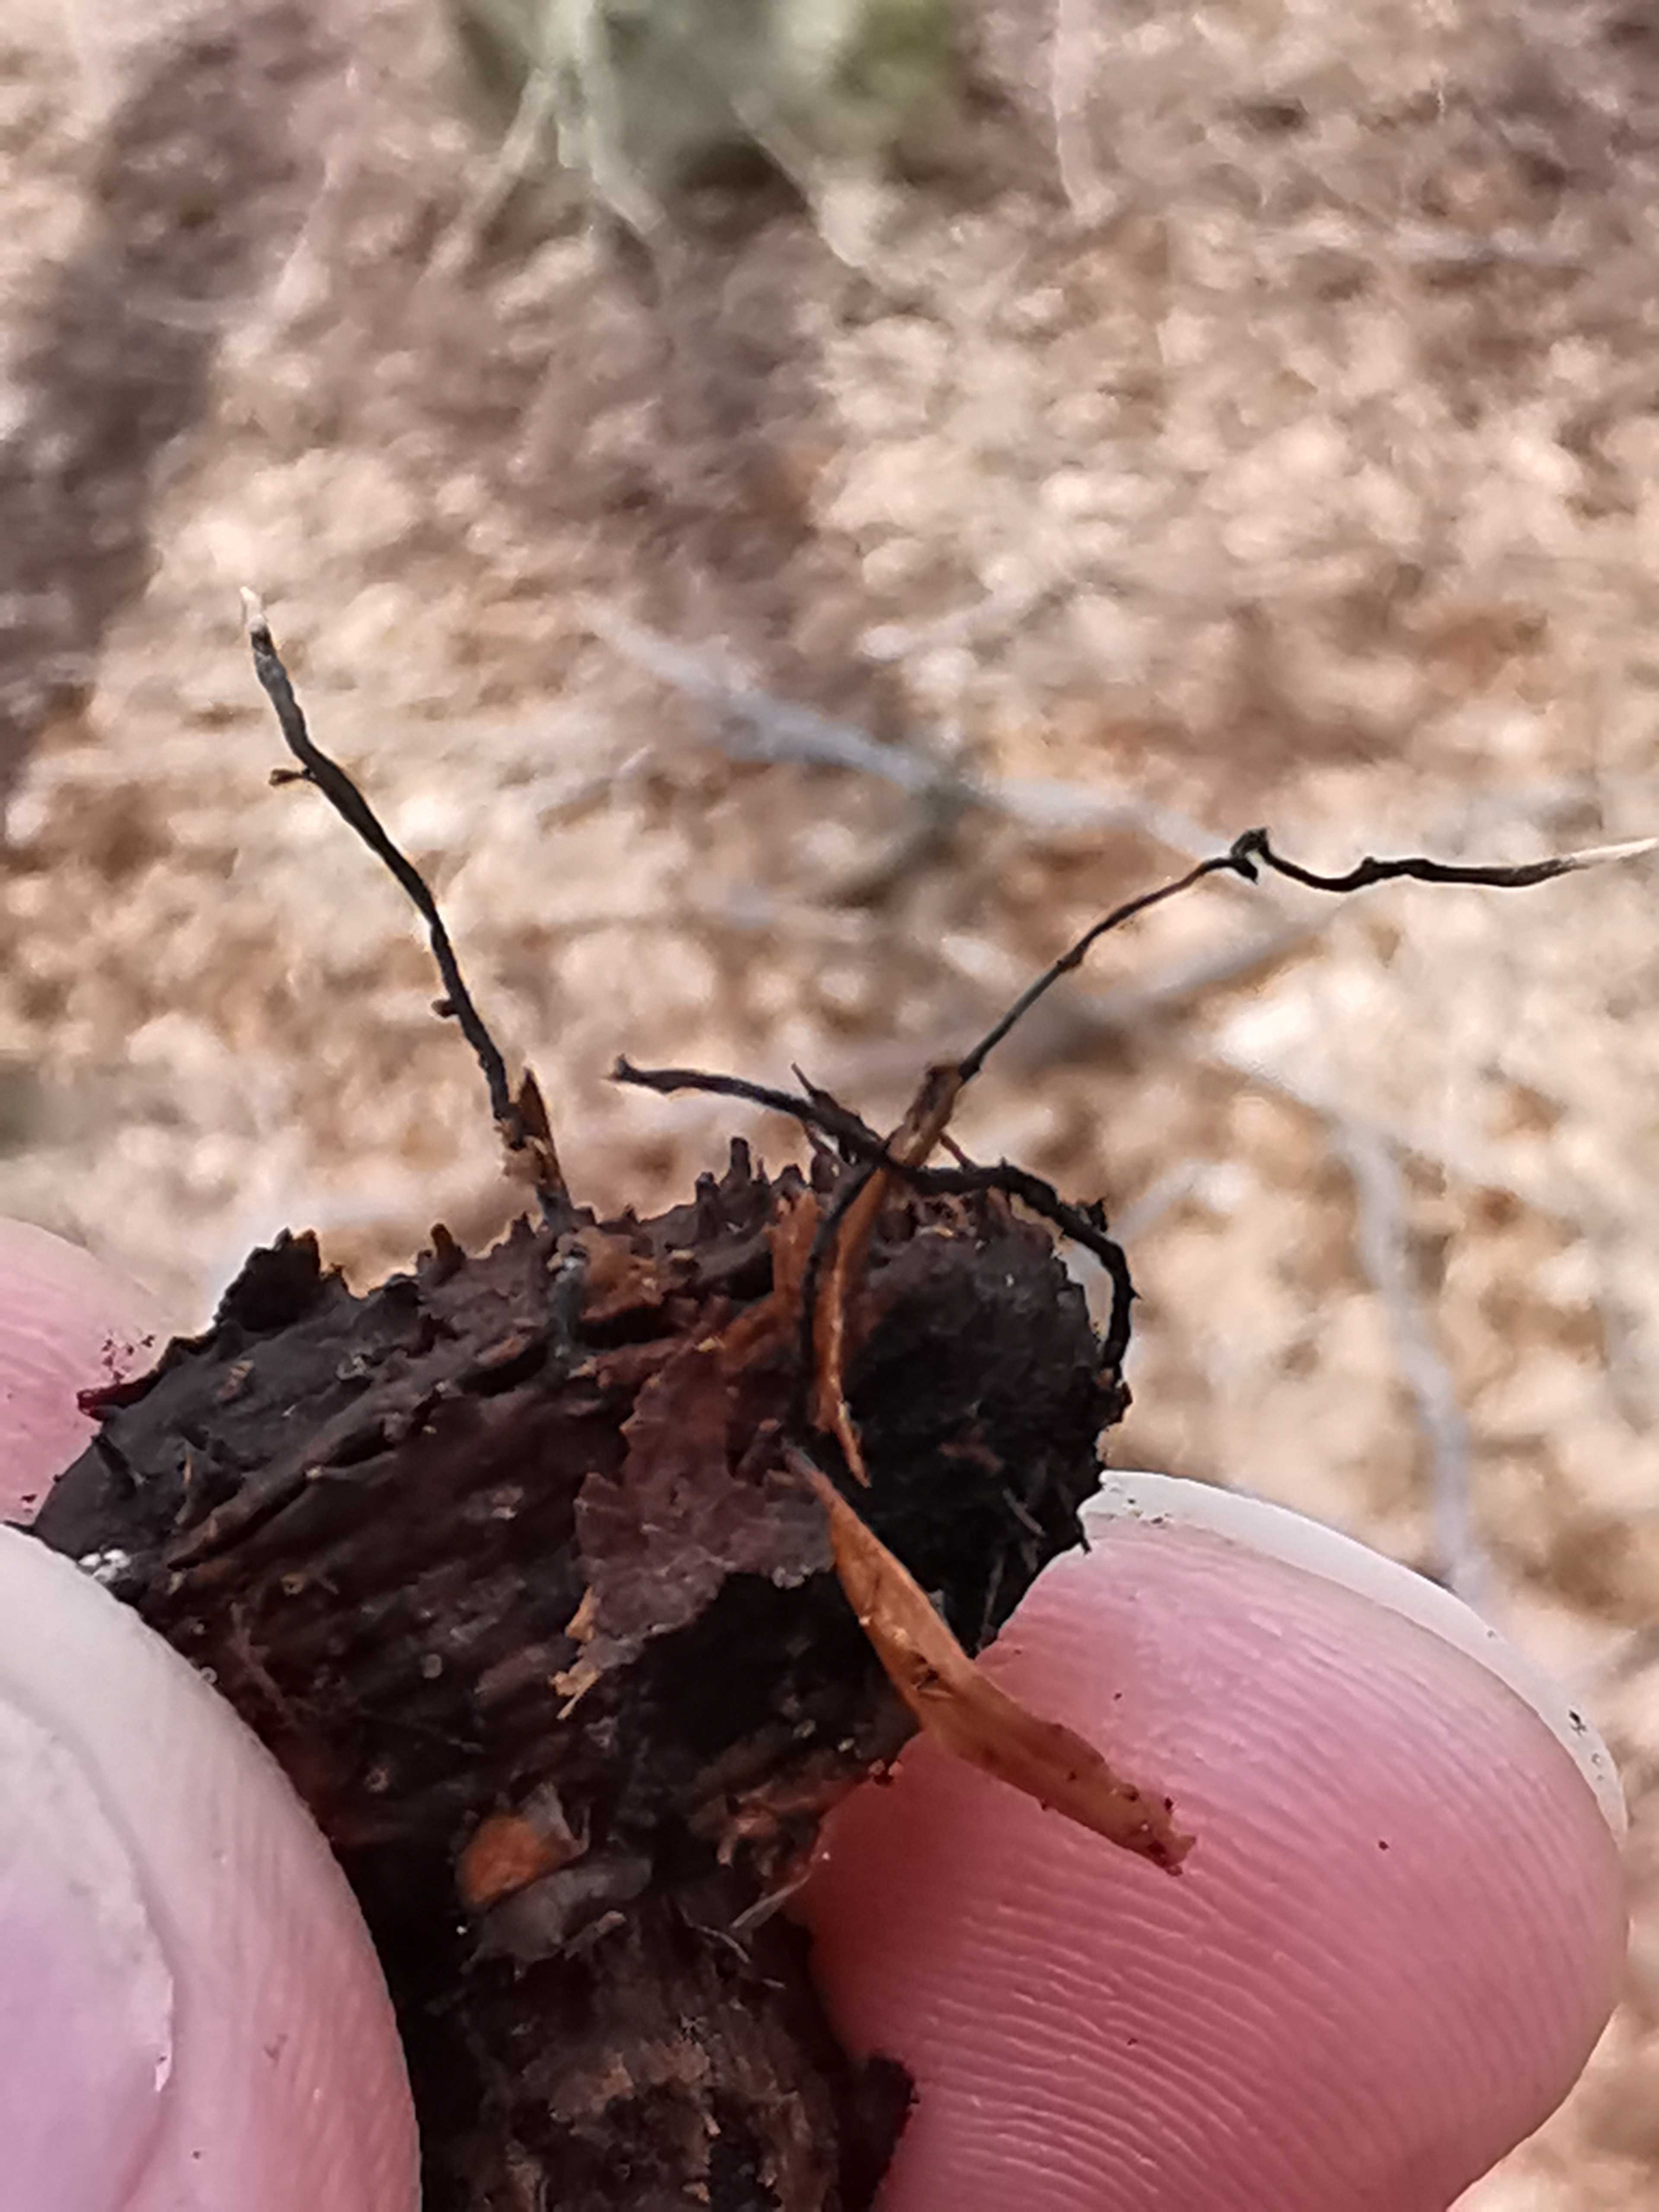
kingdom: Fungi
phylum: Ascomycota
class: Sordariomycetes
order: Xylariales
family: Xylariaceae
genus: Xylaria
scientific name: Xylaria carpophila
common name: bogskål-stødsvamp
